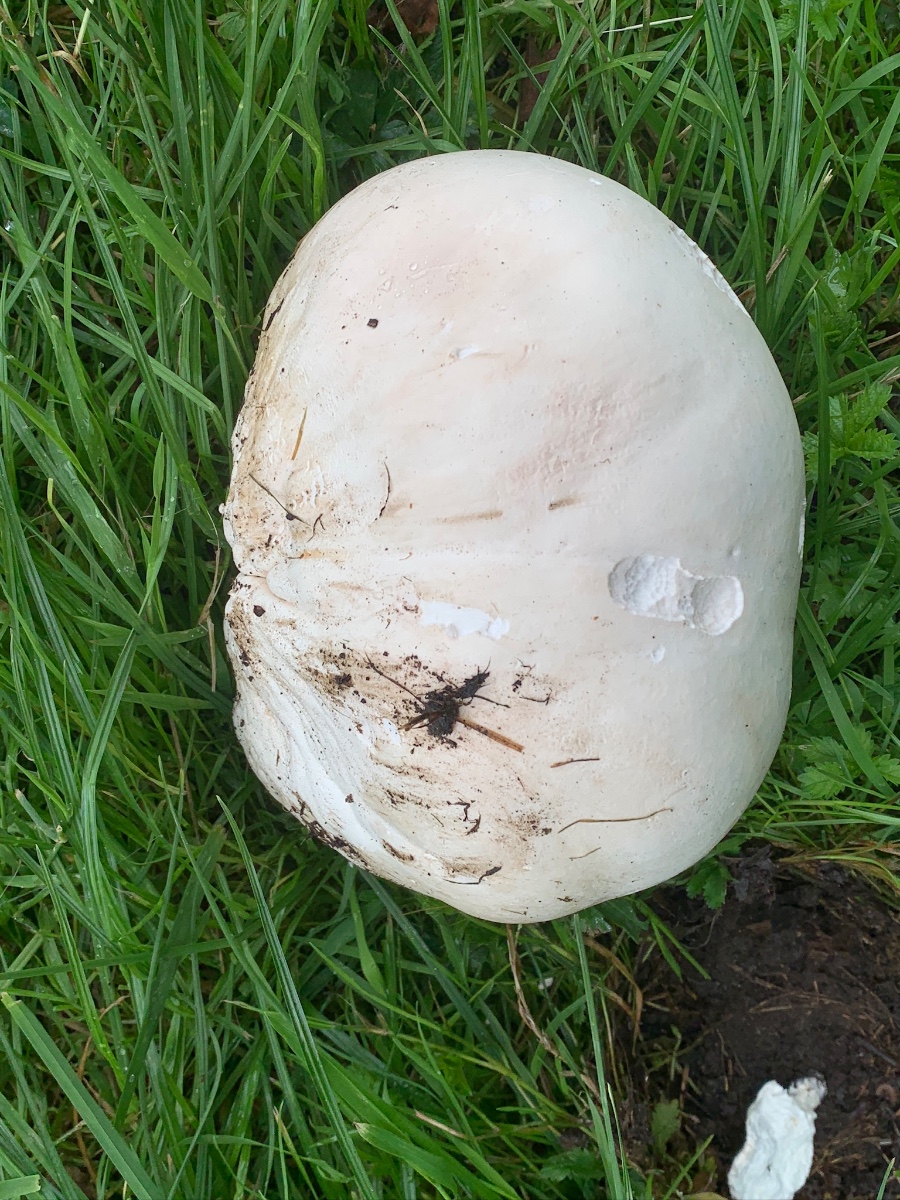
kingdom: Fungi
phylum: Basidiomycota
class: Agaricomycetes
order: Agaricales
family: Lycoperdaceae
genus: Calvatia
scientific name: Calvatia gigantea
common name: kæmpestøvbold
